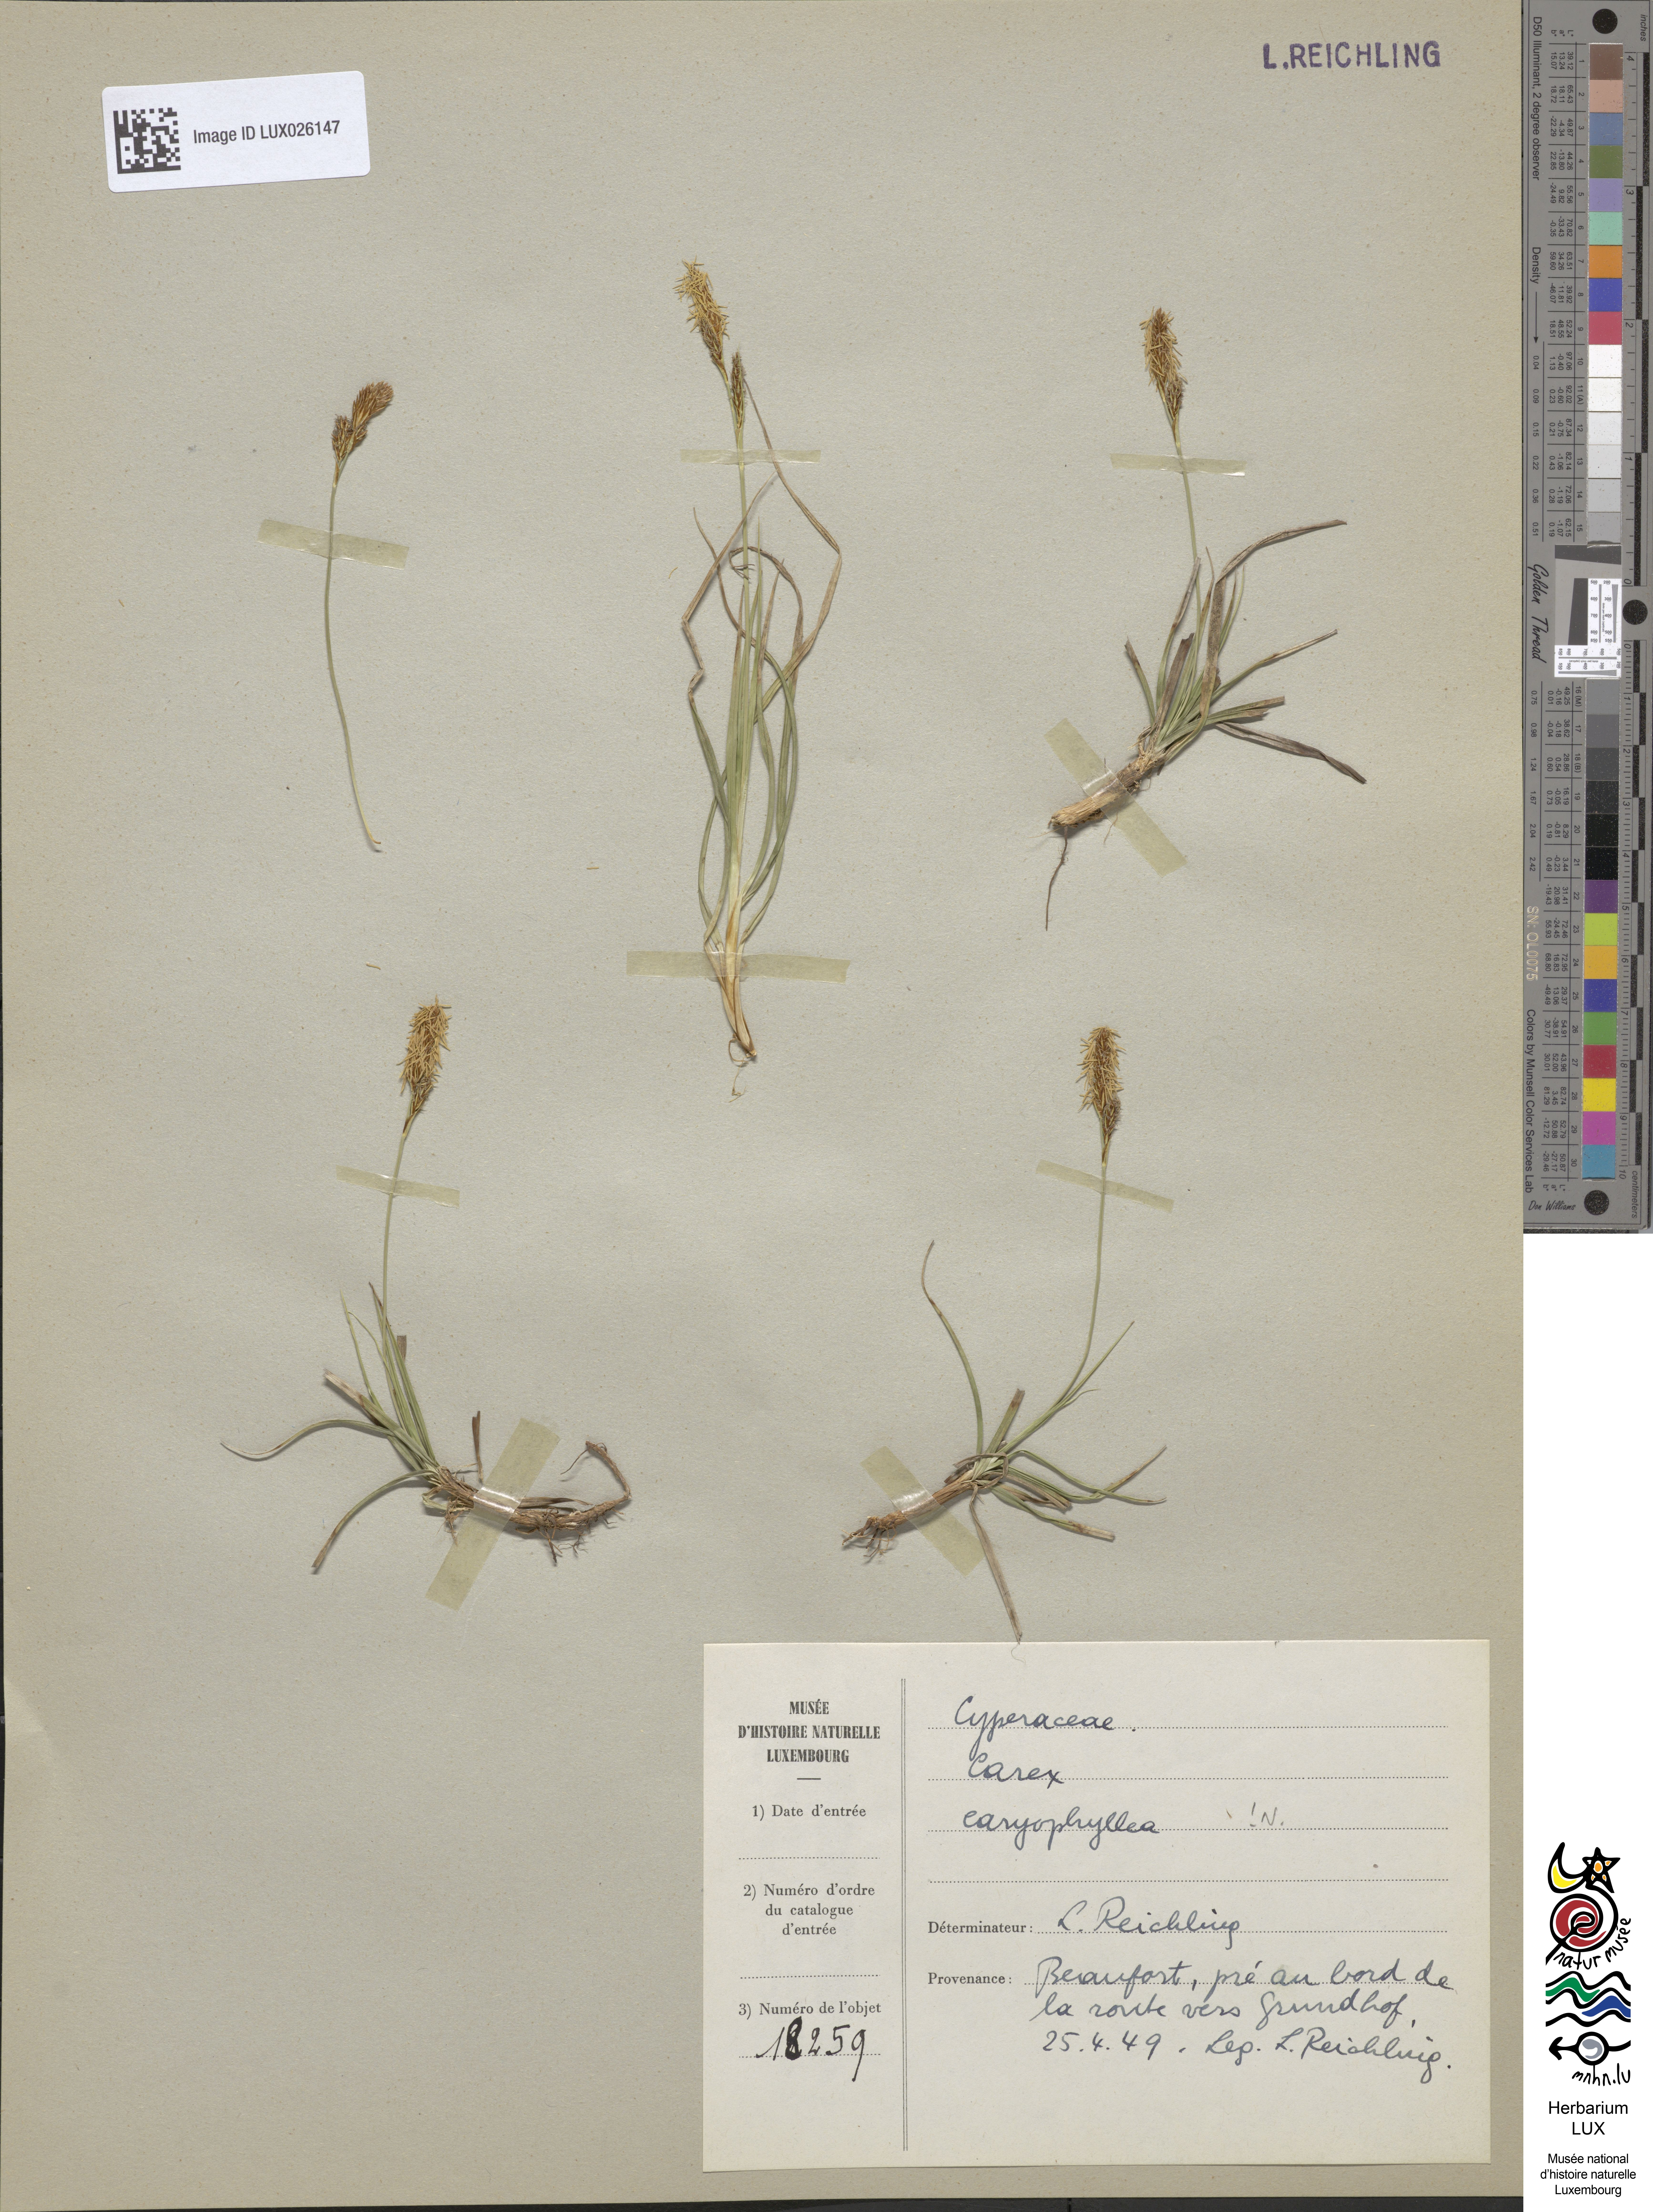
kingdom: Plantae
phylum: Tracheophyta
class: Liliopsida
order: Poales
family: Cyperaceae
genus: Carex
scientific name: Carex caryophyllea
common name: Spring sedge
